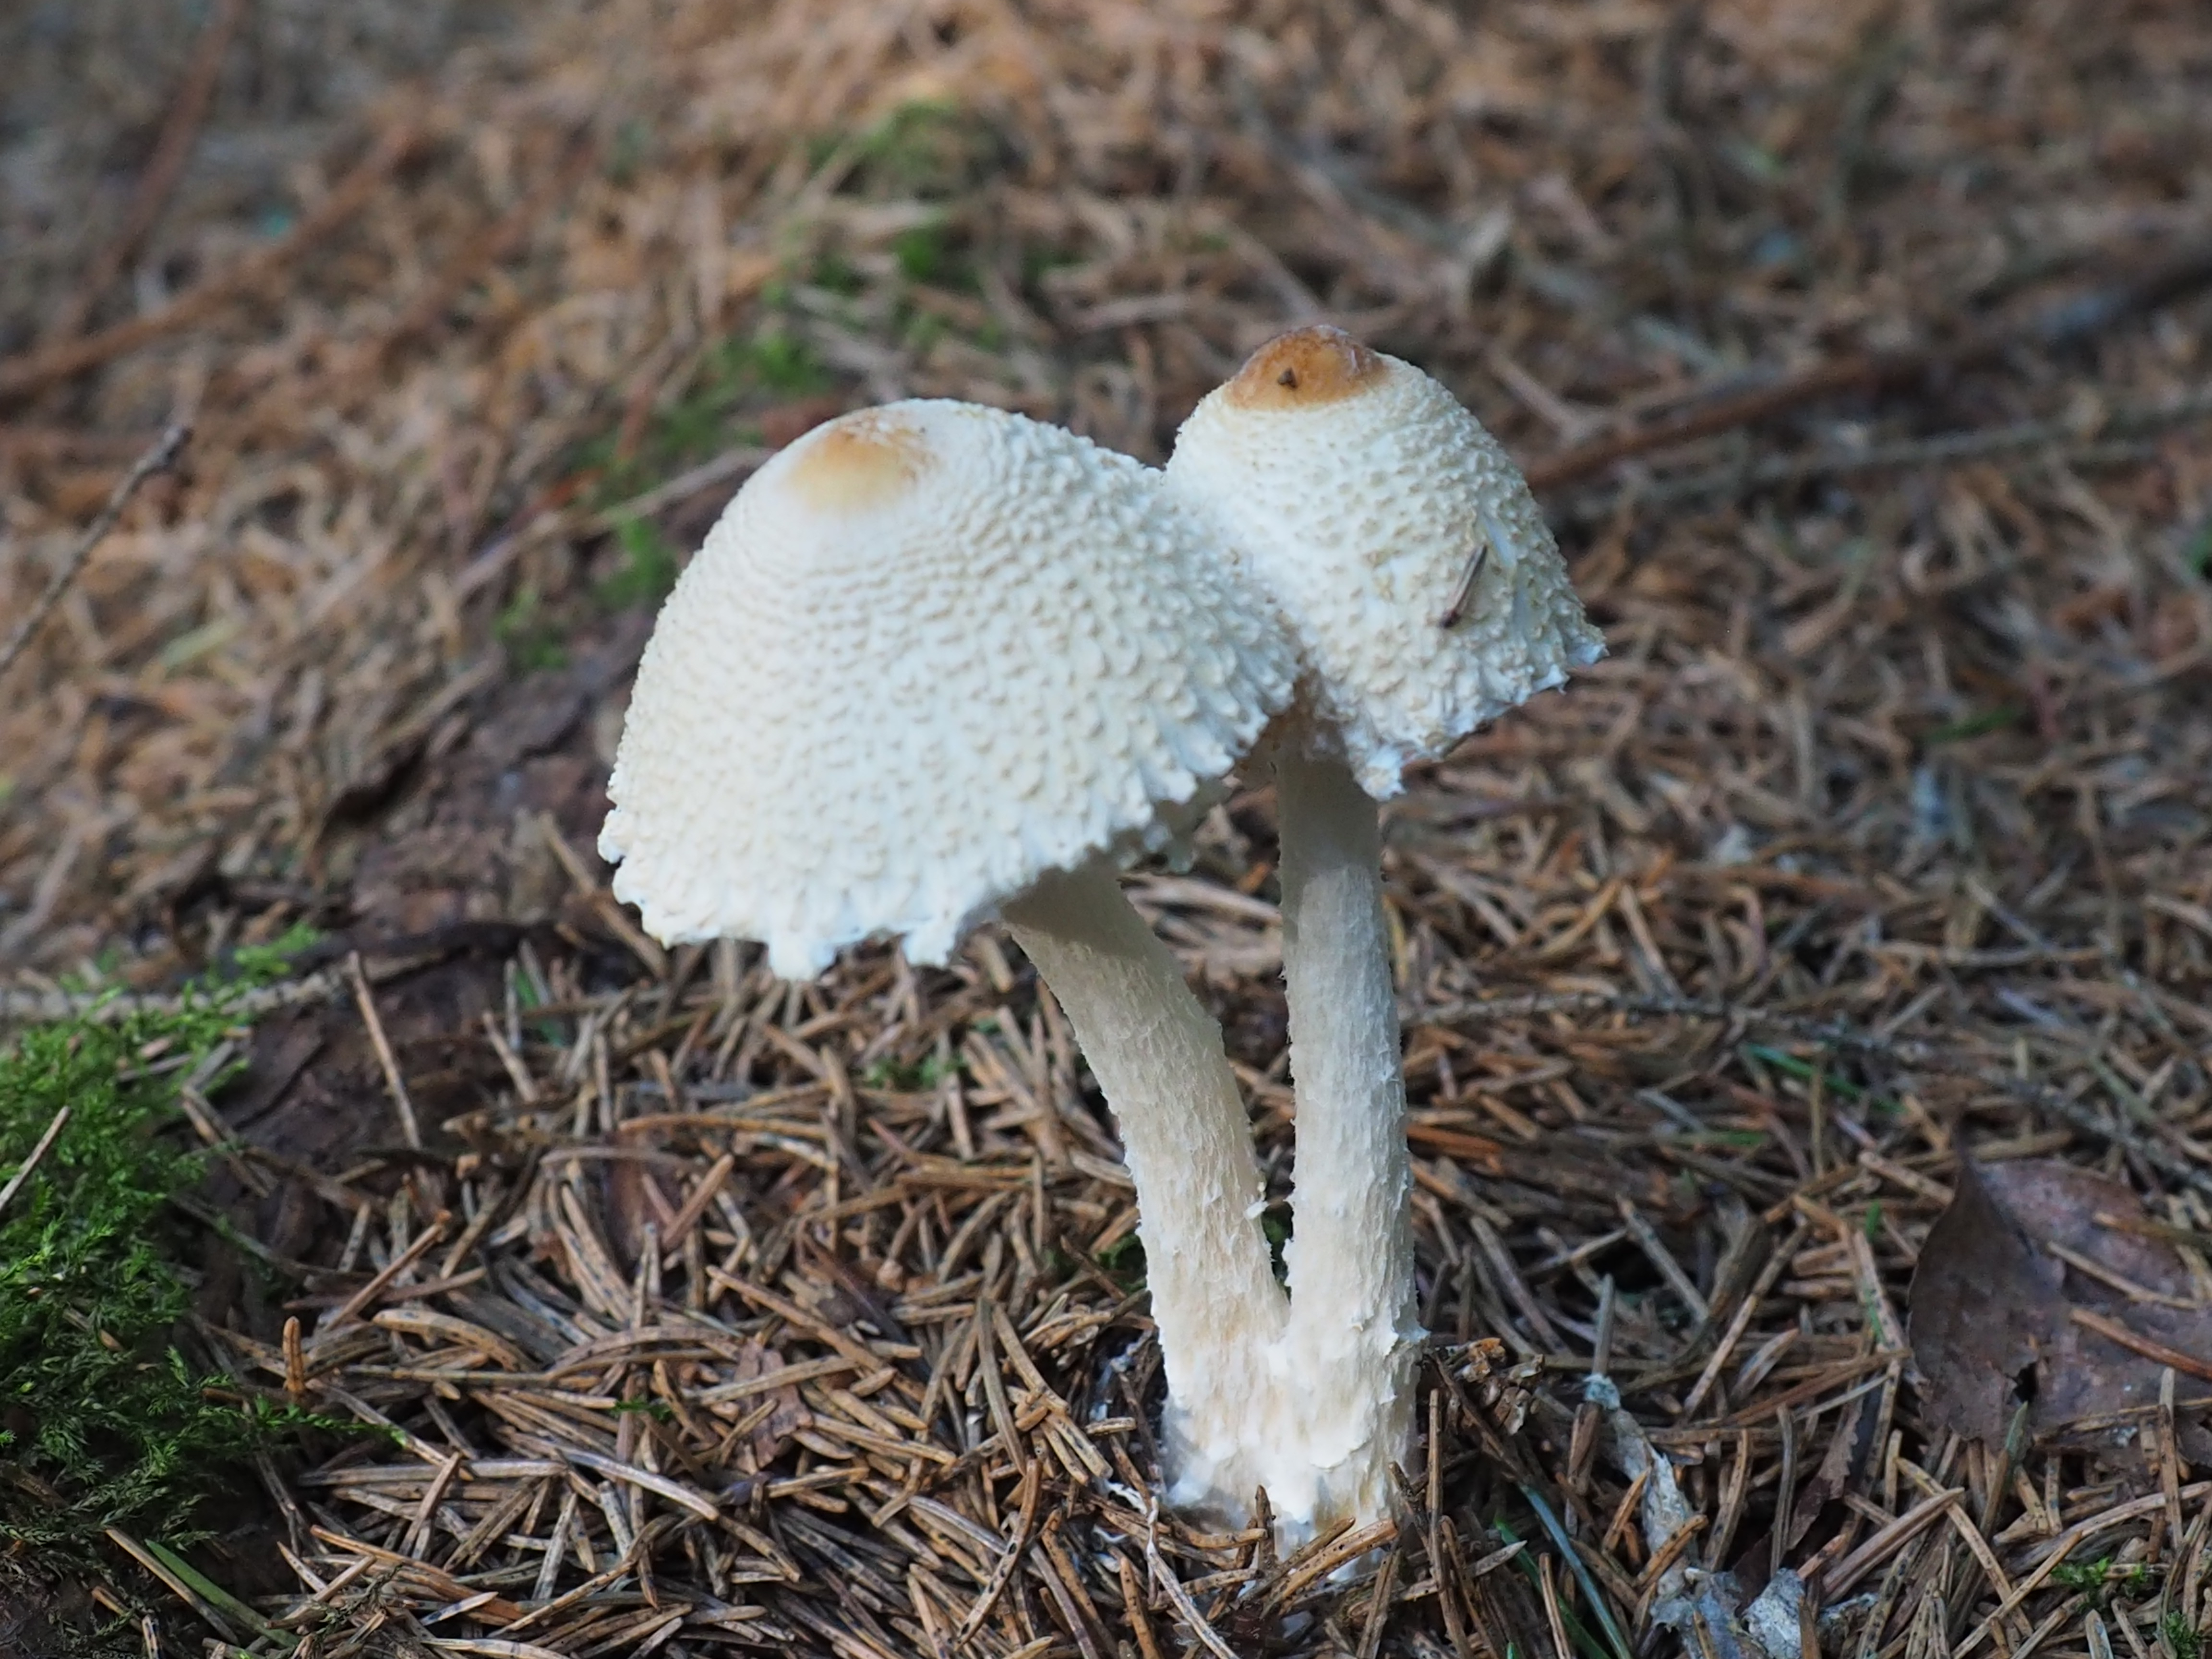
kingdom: Fungi
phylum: Basidiomycota
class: Agaricomycetes
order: Agaricales
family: Agaricaceae
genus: Lepiota
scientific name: Lepiota clypeolaria
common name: Shield dapperling
